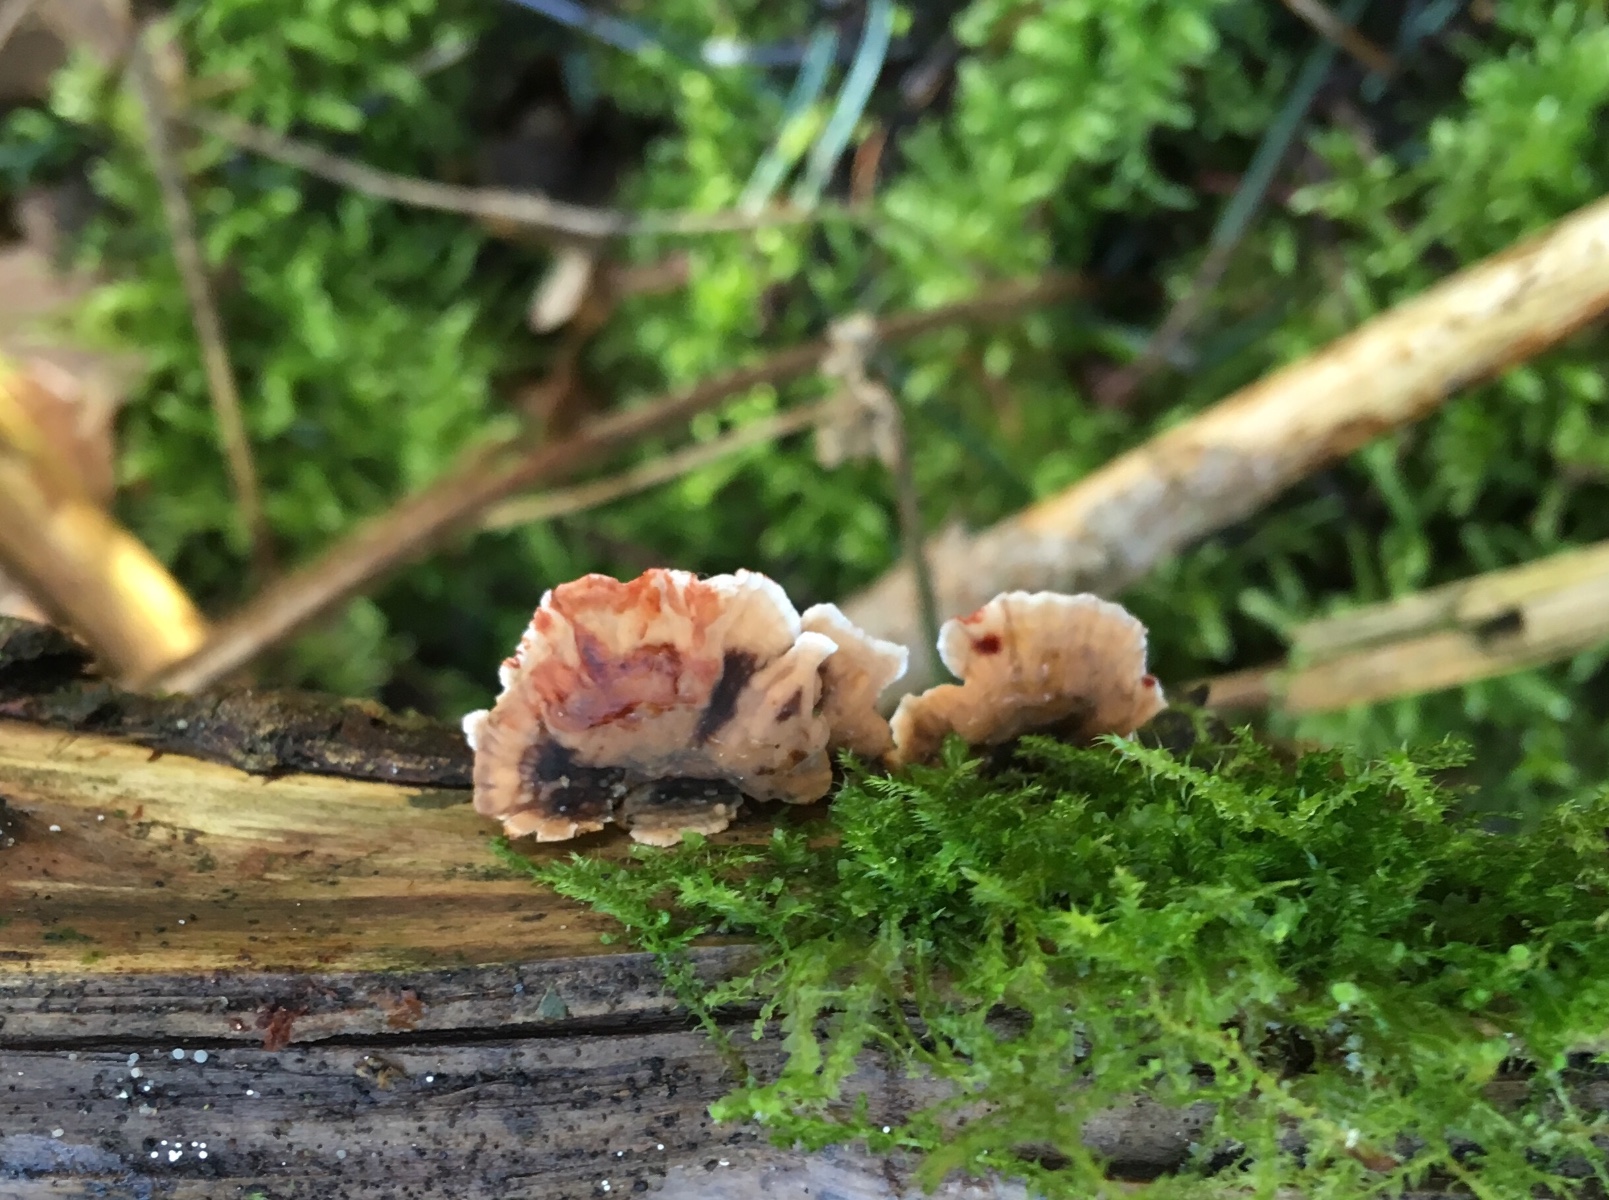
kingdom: Fungi
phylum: Basidiomycota
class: Agaricomycetes
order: Russulales
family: Stereaceae
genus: Stereum
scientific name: Stereum sanguinolentum
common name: blødende lædersvamp
